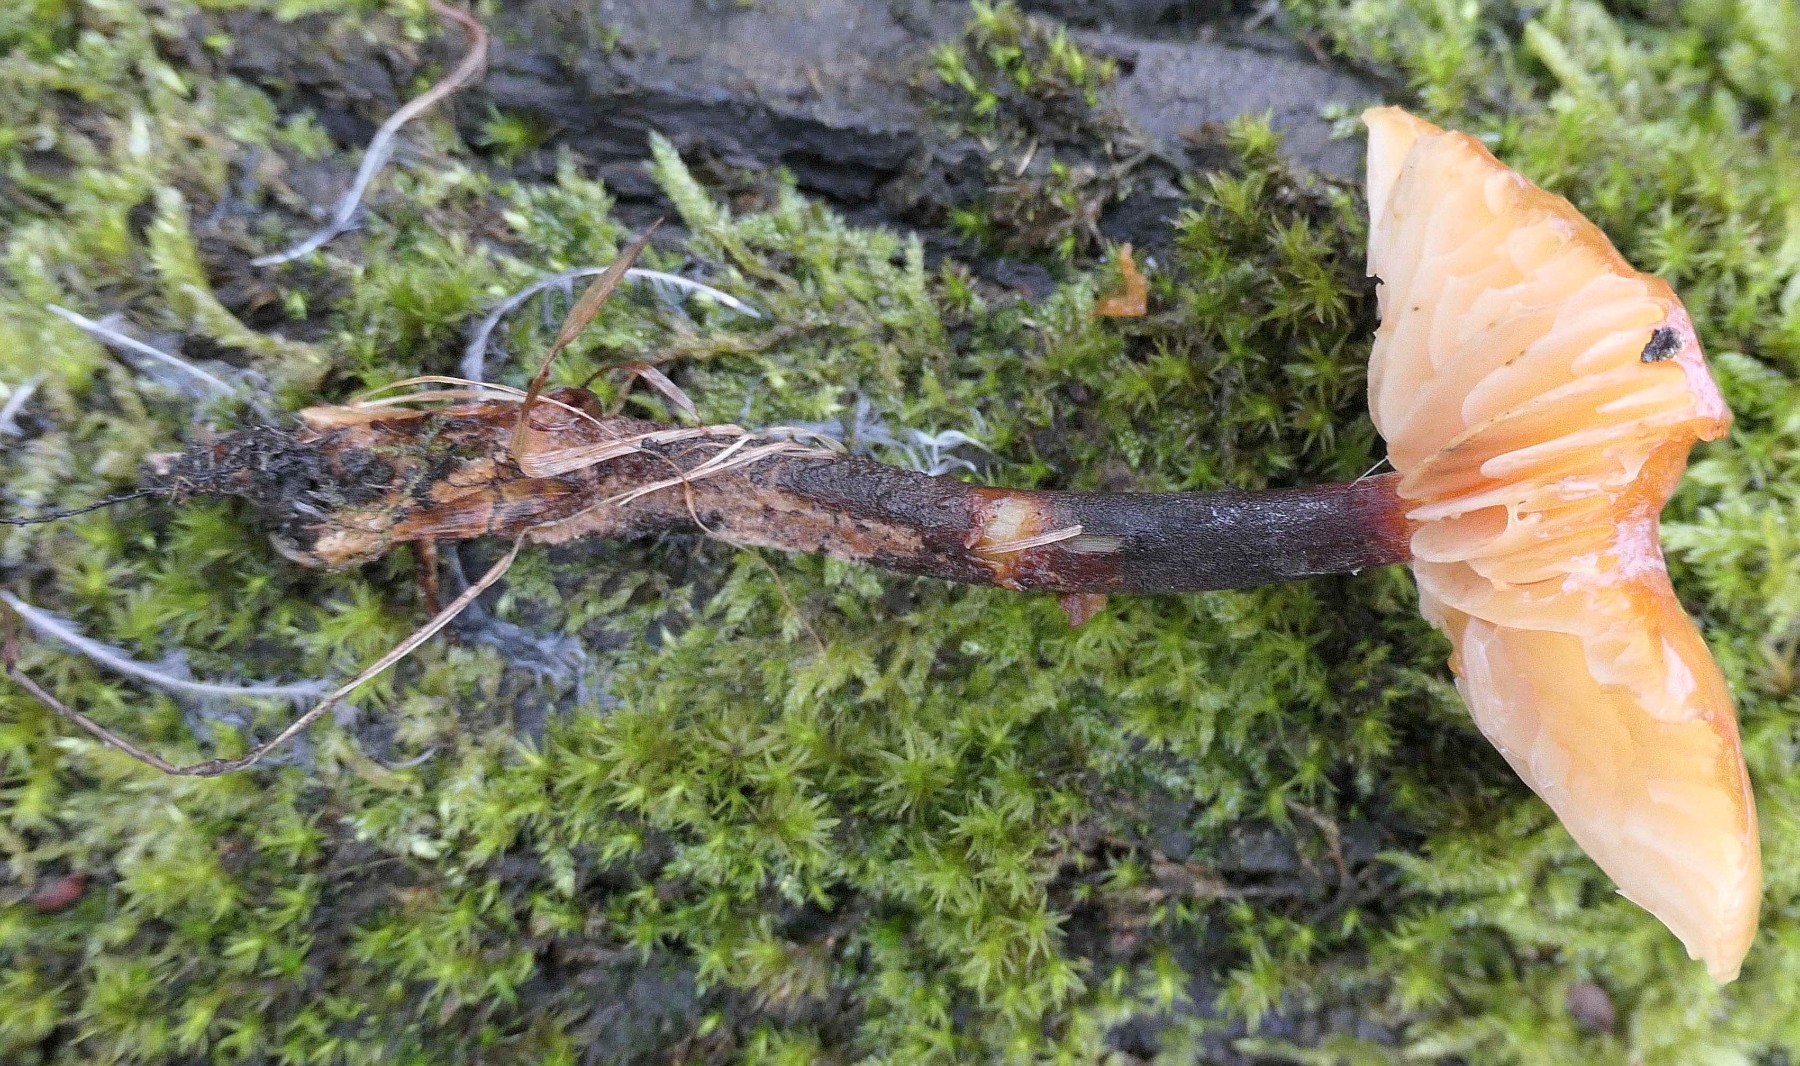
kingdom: Fungi
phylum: Basidiomycota
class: Agaricomycetes
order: Agaricales
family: Physalacriaceae
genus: Flammulina
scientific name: Flammulina elastica
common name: pile-fløjlsfod
